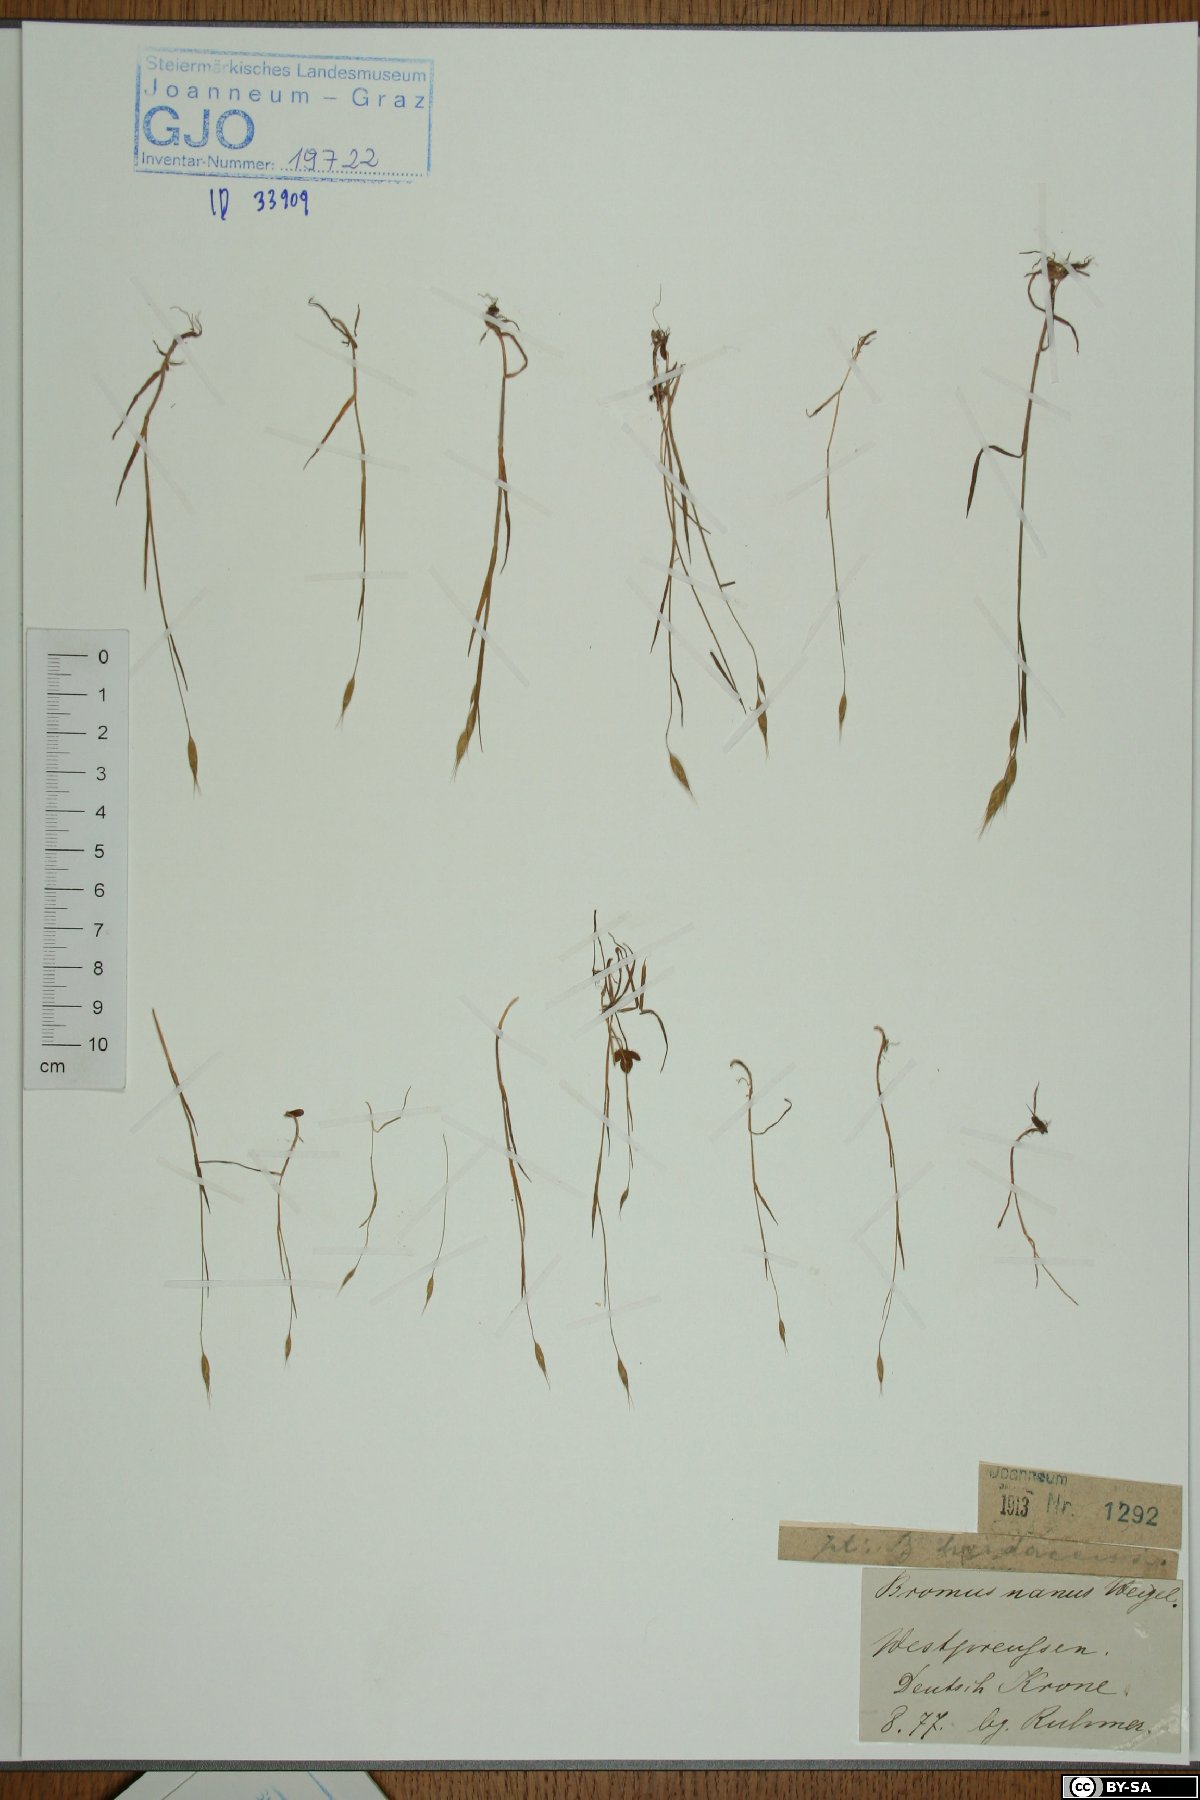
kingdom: Plantae
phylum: Tracheophyta
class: Liliopsida
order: Poales
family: Poaceae
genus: Bromus
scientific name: Bromus hordeaceus
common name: Soft brome
